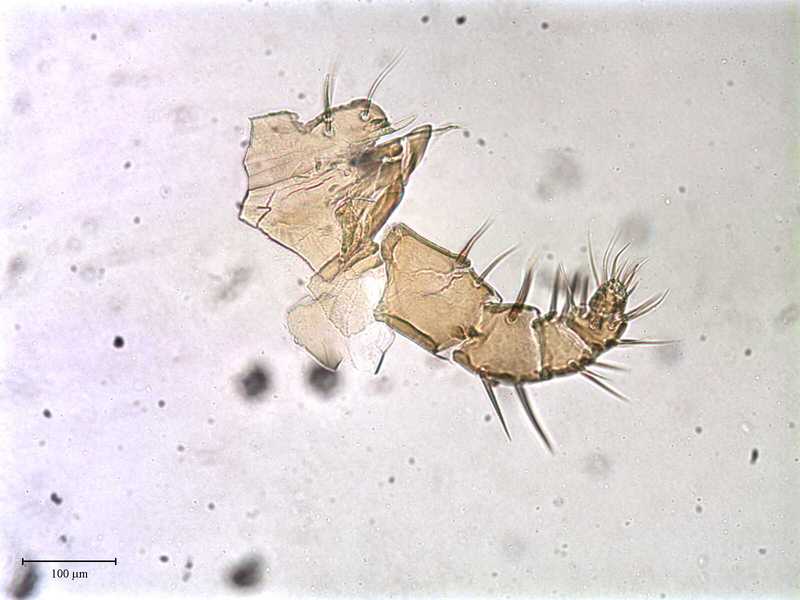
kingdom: Animalia
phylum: Arthropoda
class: Arachnida
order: Mesostigmata
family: Laelapidae
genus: Dinogamasus
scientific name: Dinogamasus
